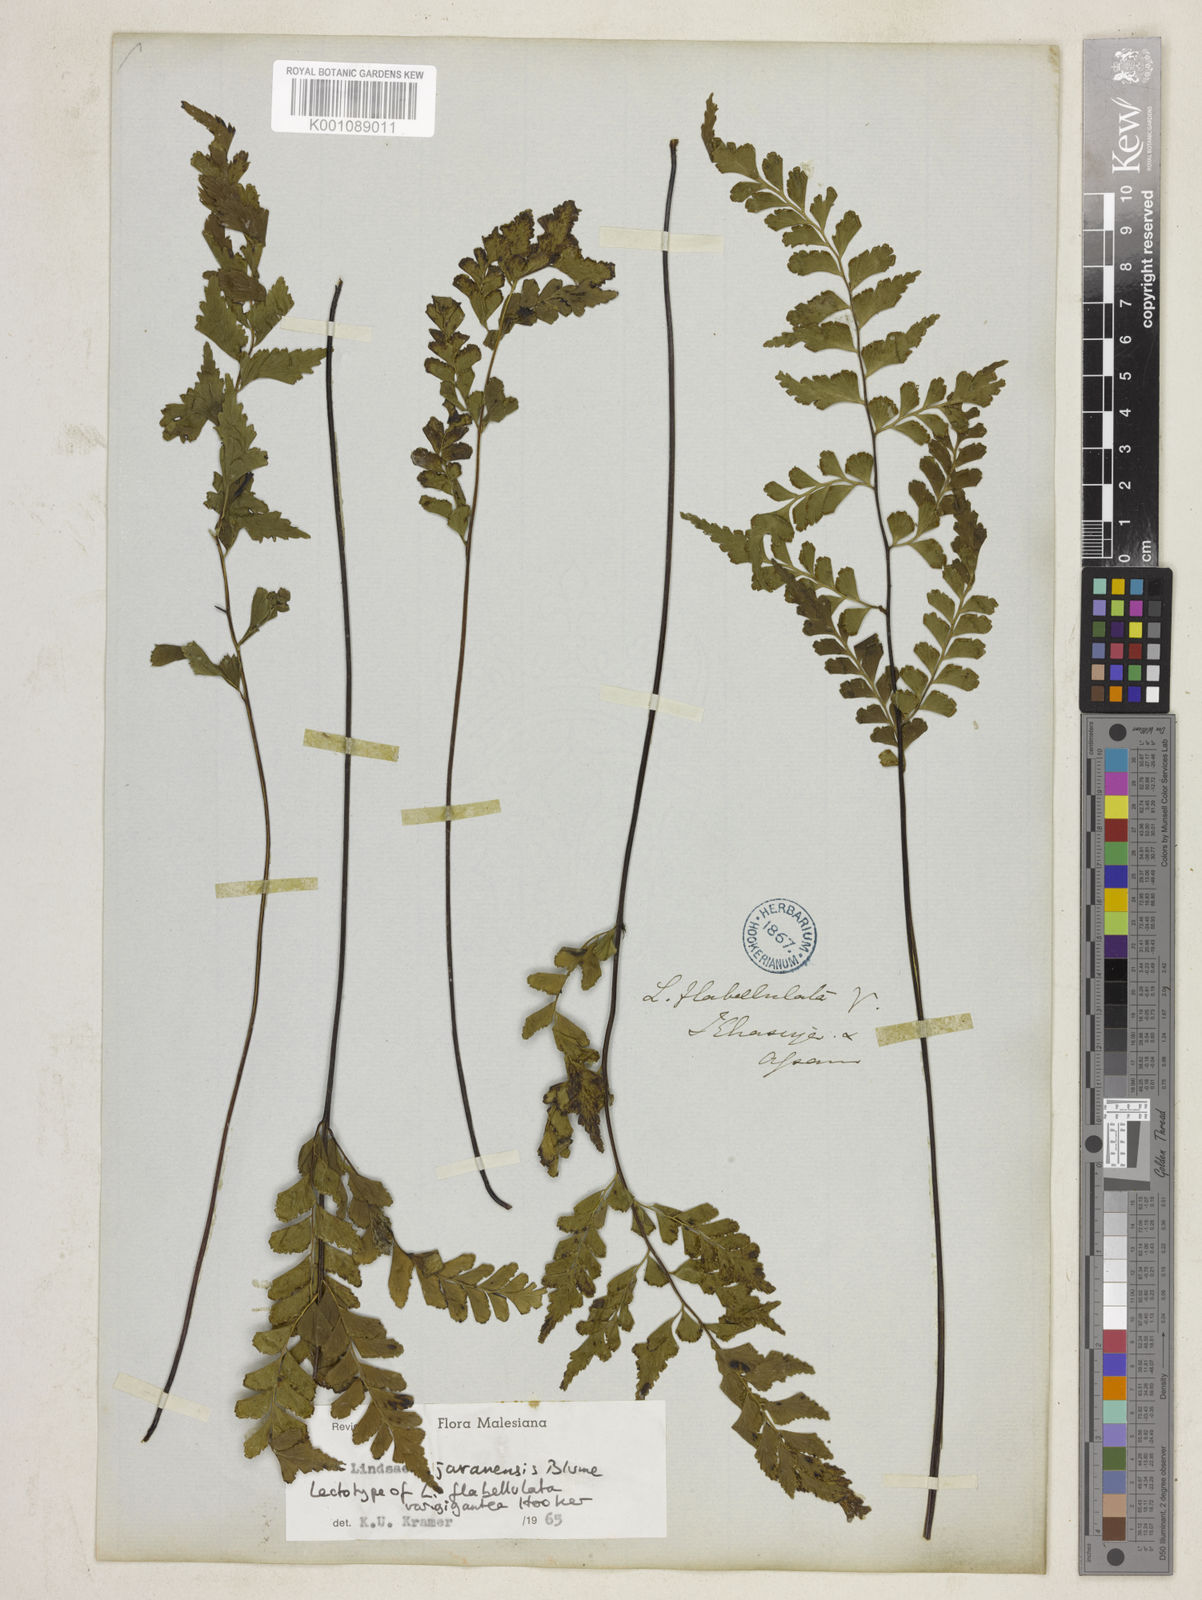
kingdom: Plantae
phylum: Tracheophyta
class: Polypodiopsida
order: Polypodiales
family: Lindsaeaceae
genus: Lindsaea
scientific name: Lindsaea javanensis
